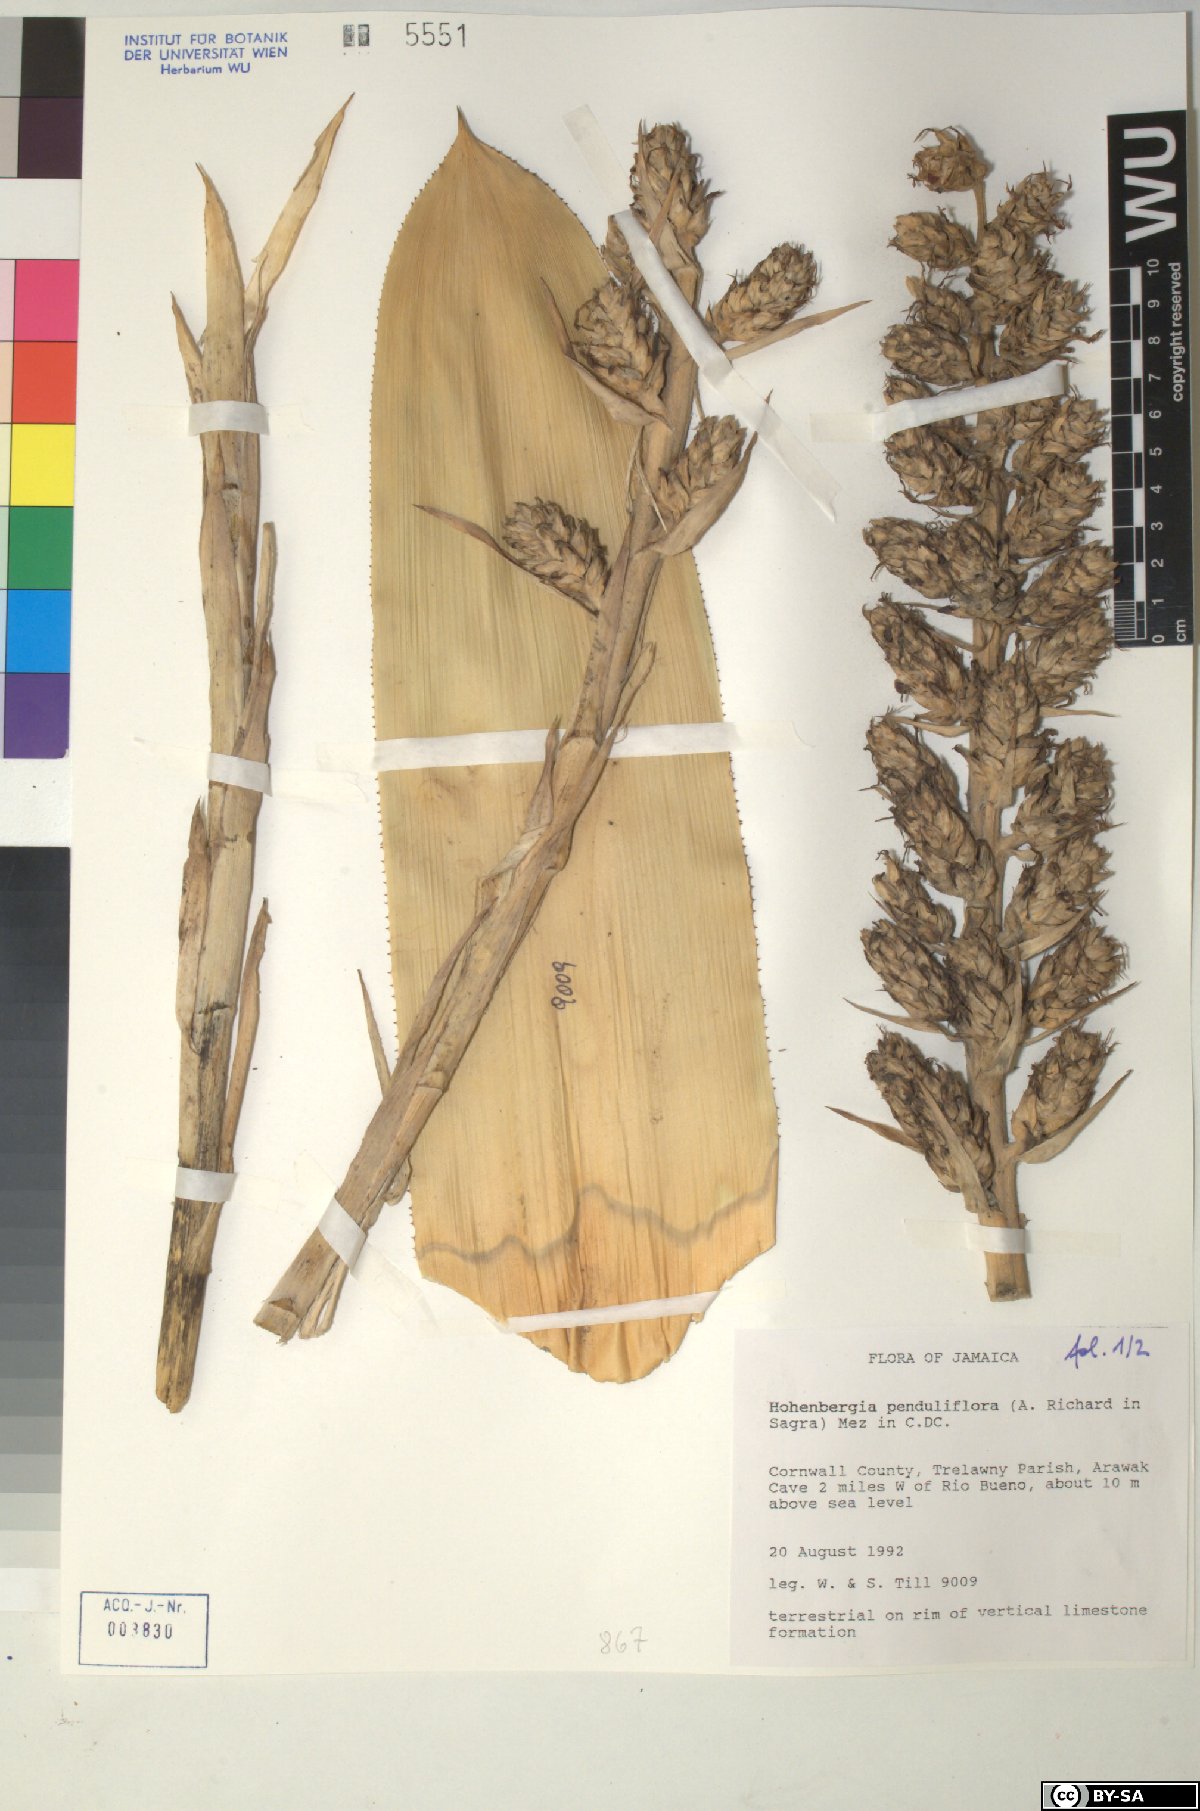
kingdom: Plantae
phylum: Tracheophyta
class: Liliopsida
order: Poales
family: Bromeliaceae
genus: Wittmackia
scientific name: Wittmackia penduliflora
